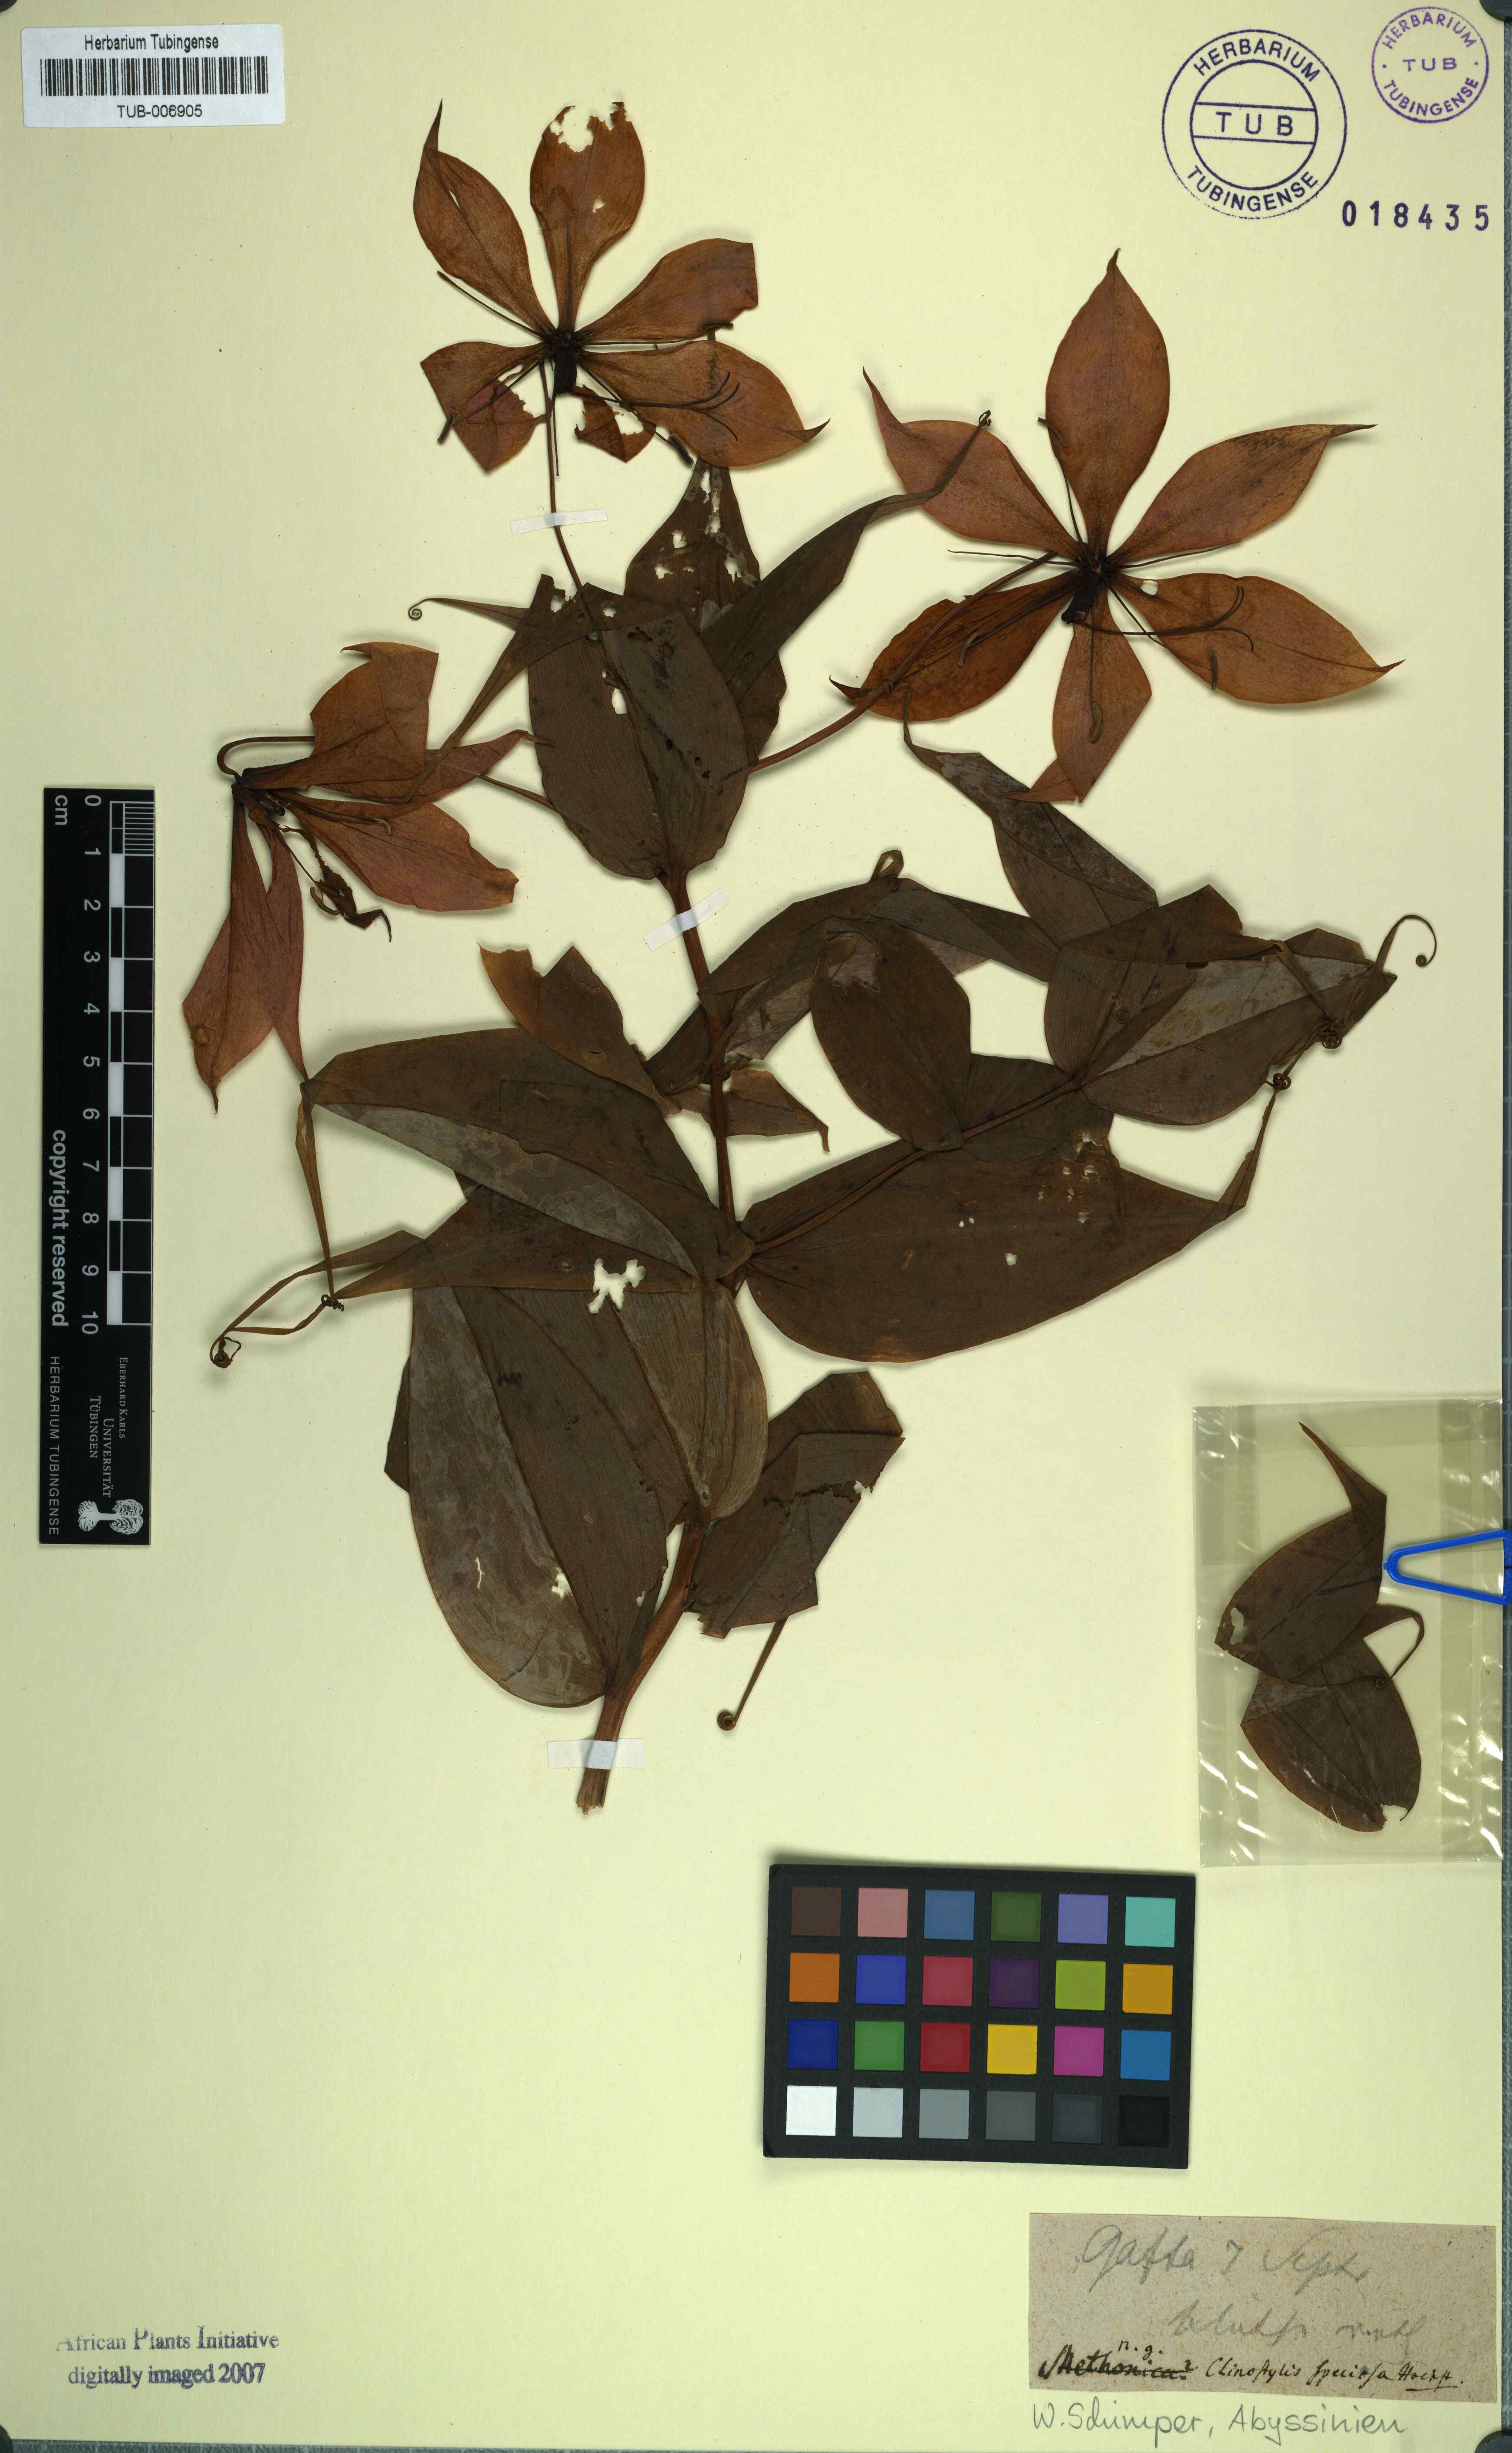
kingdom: Plantae
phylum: Tracheophyta
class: Liliopsida
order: Liliales
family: Colchicaceae
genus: Gloriosa
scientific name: Gloriosa simplex
